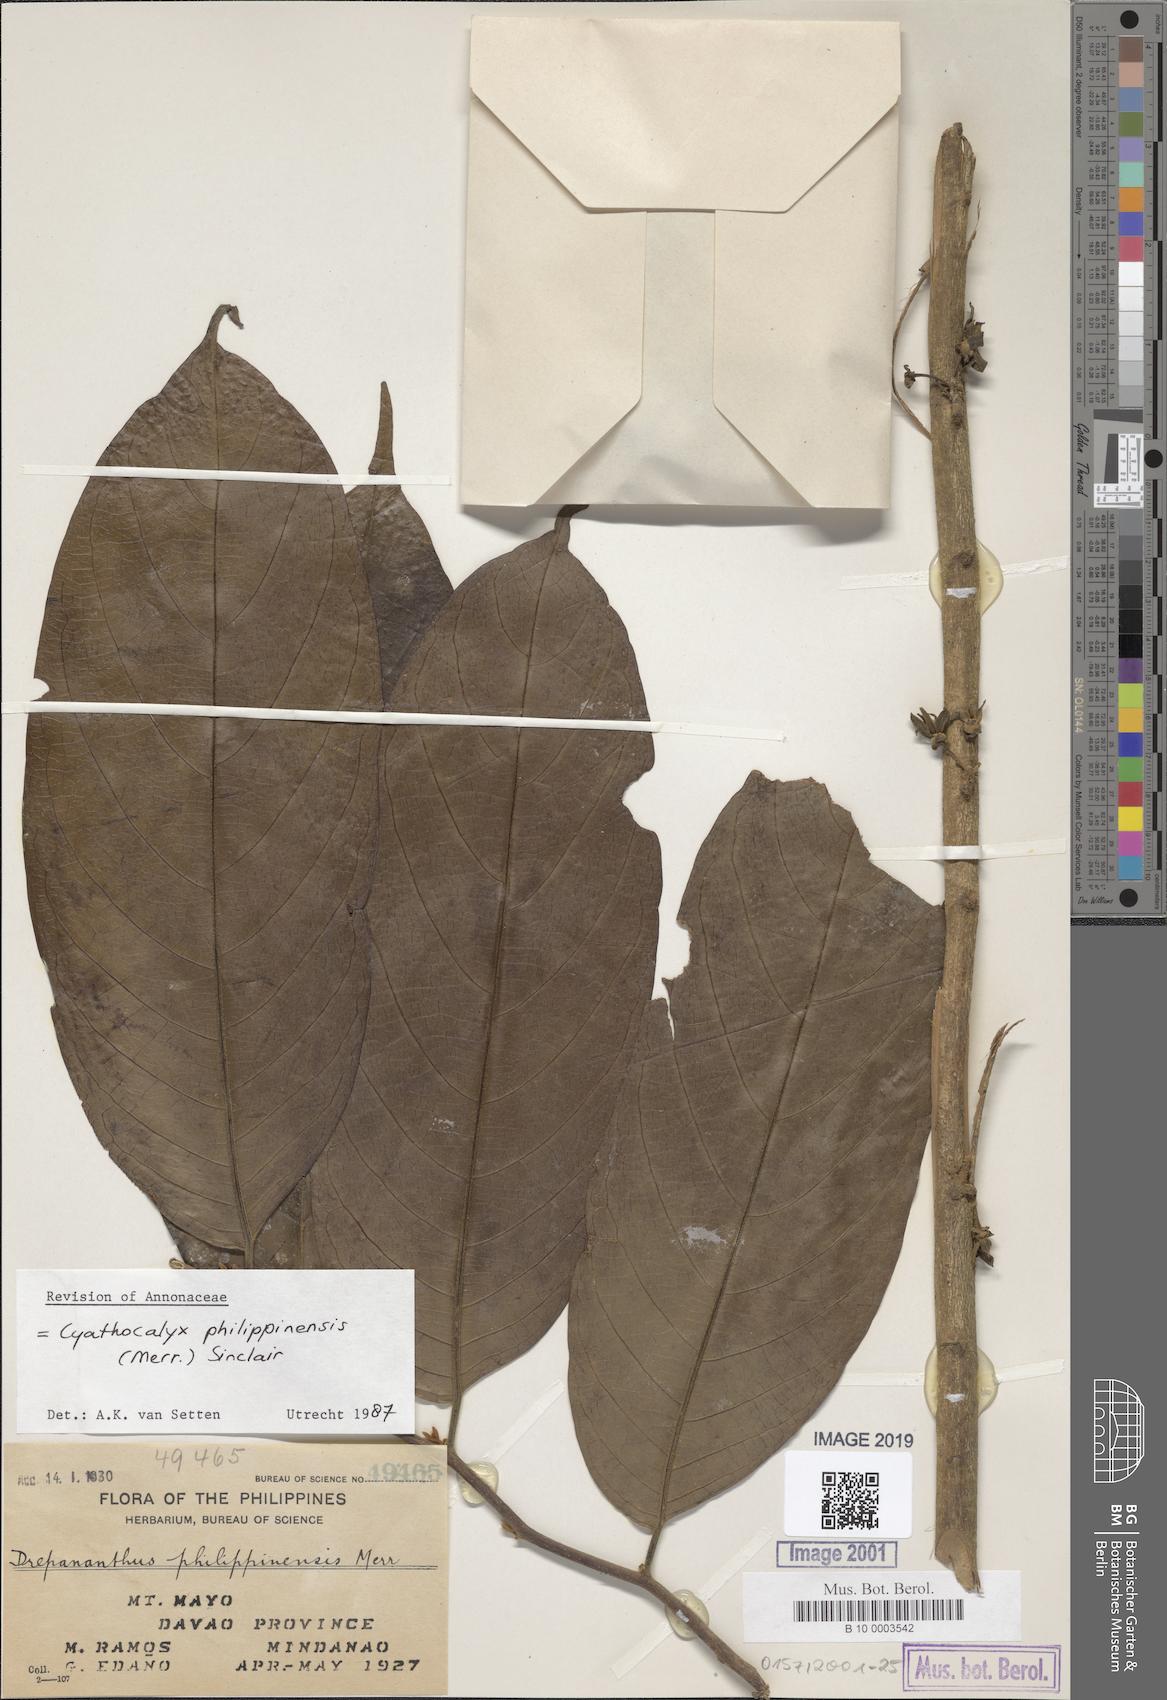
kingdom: Plantae
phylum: Tracheophyta
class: Magnoliopsida
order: Magnoliales
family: Annonaceae
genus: Drepananthus
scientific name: Drepananthus acuminatus
